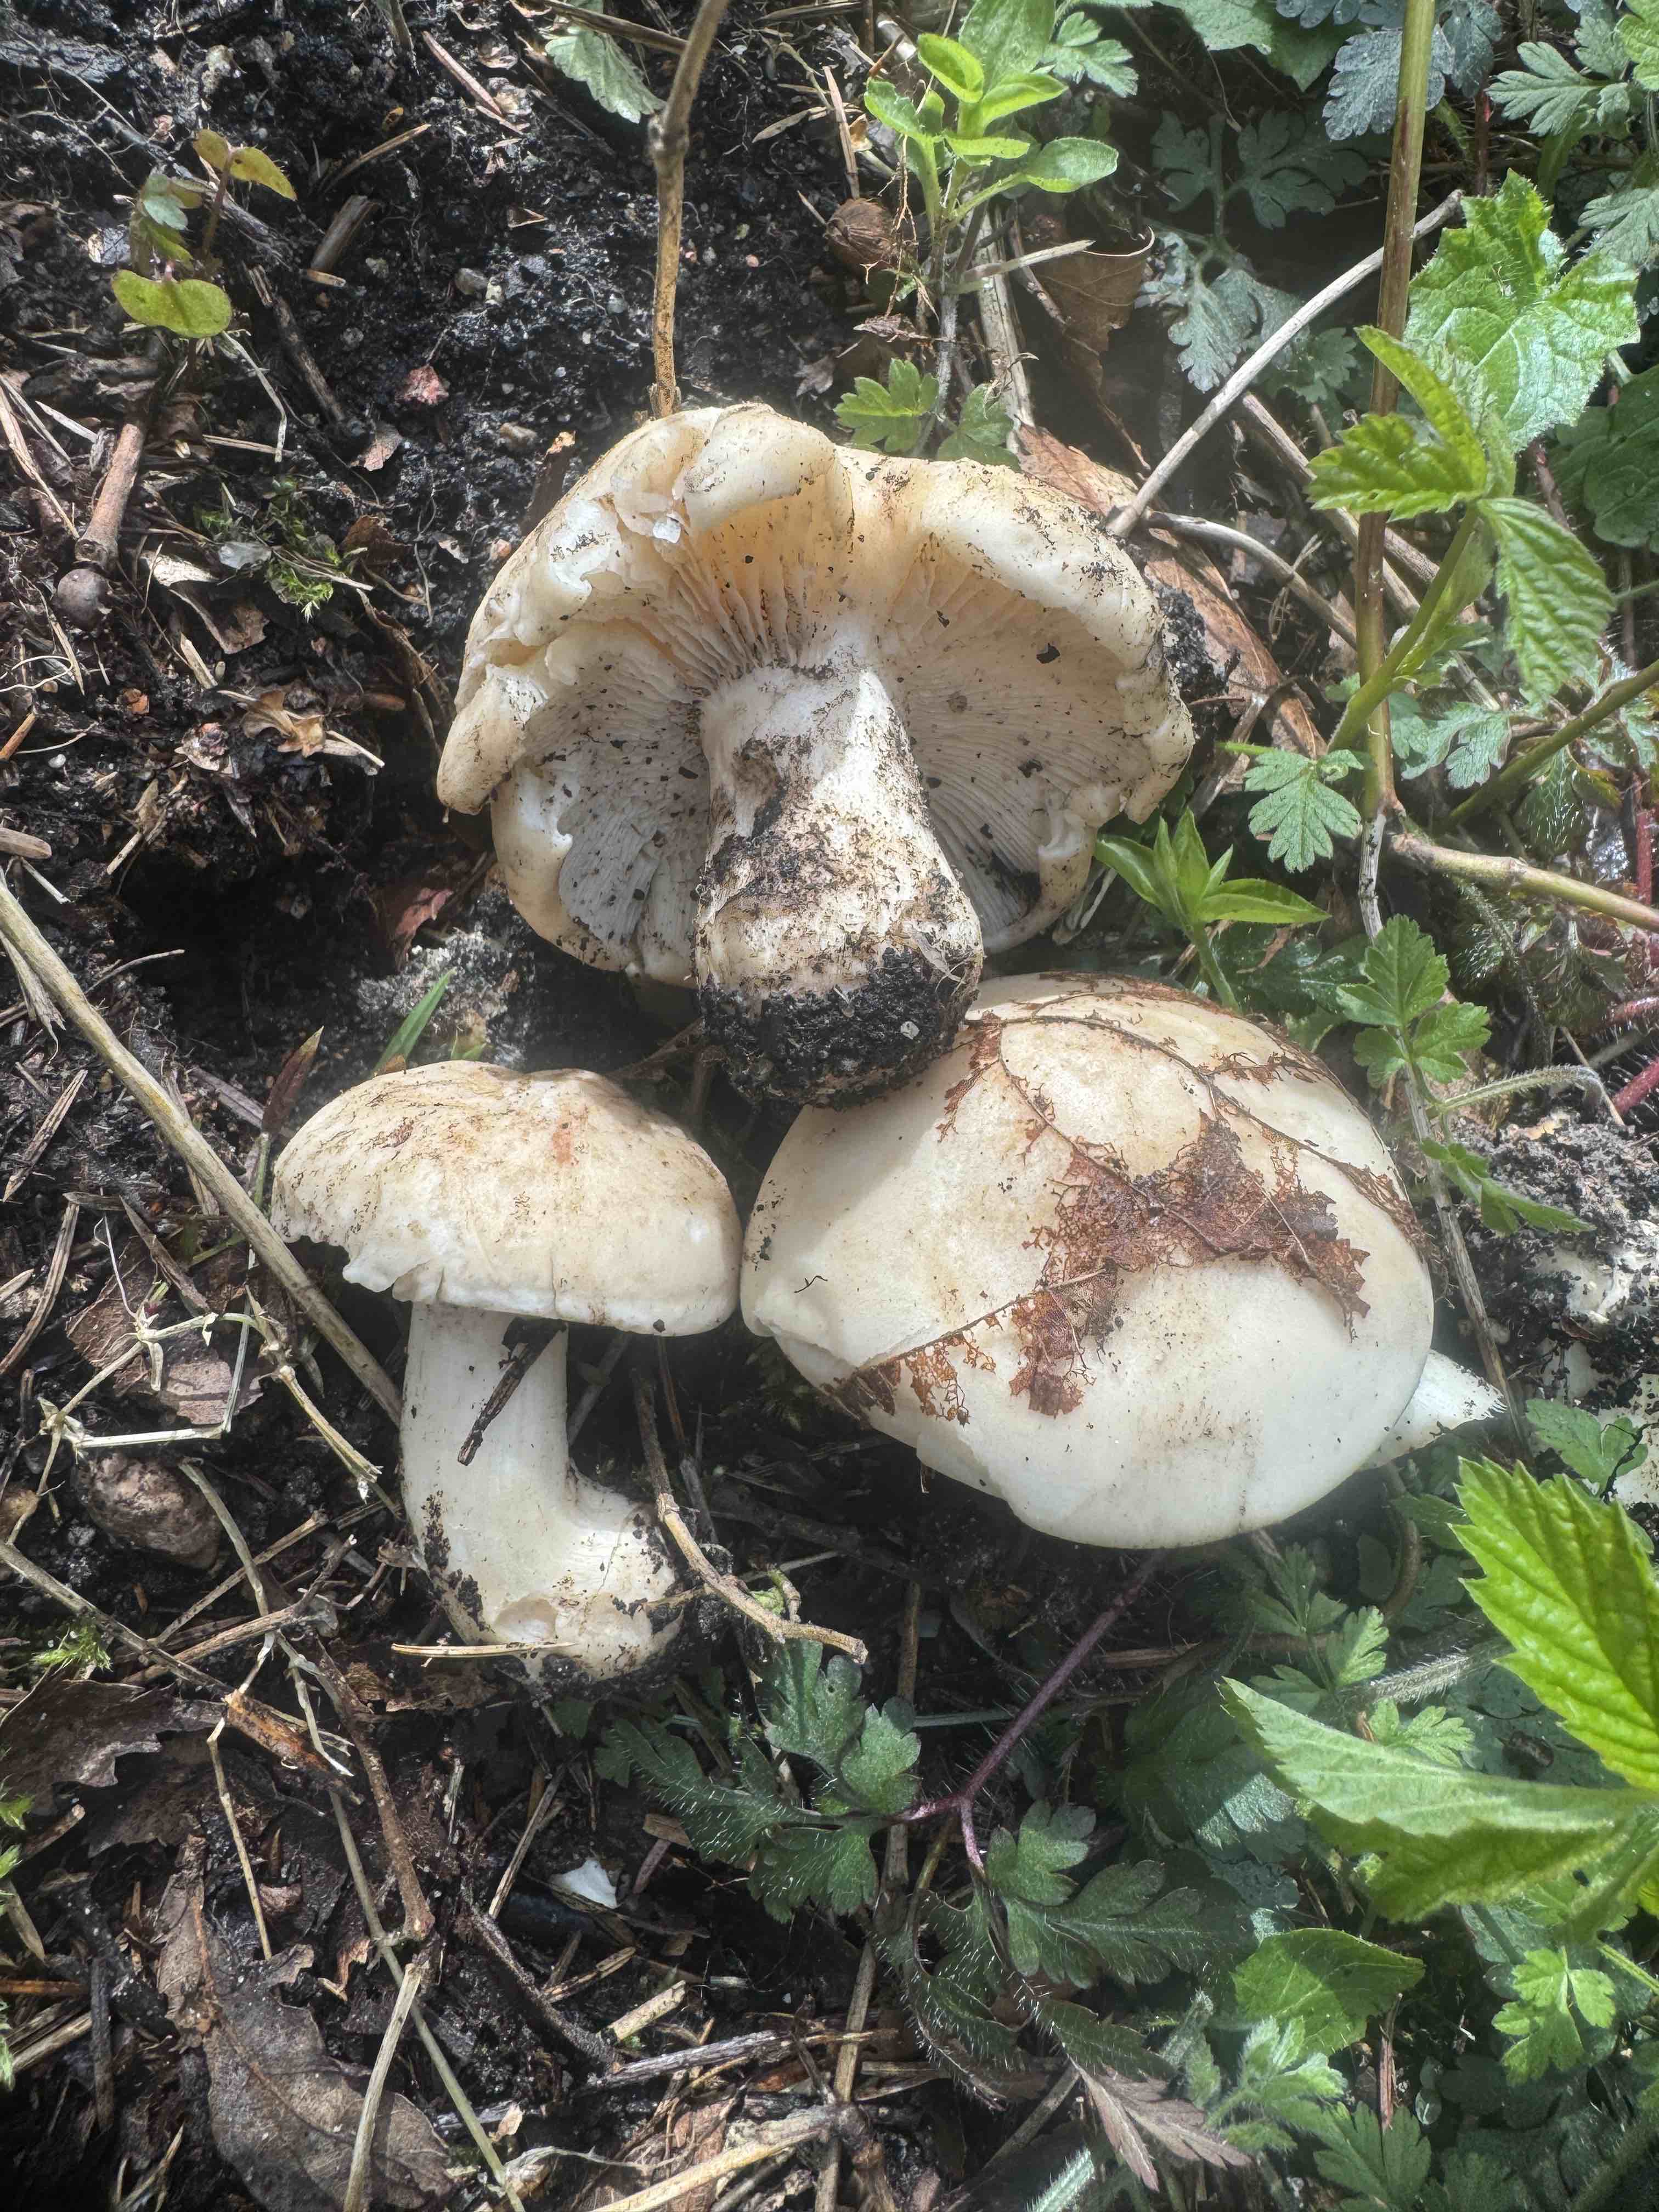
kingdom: Fungi
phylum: Basidiomycota
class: Agaricomycetes
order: Agaricales
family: Lyophyllaceae
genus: Calocybe
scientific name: Calocybe gambosa
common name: vårmusseron
